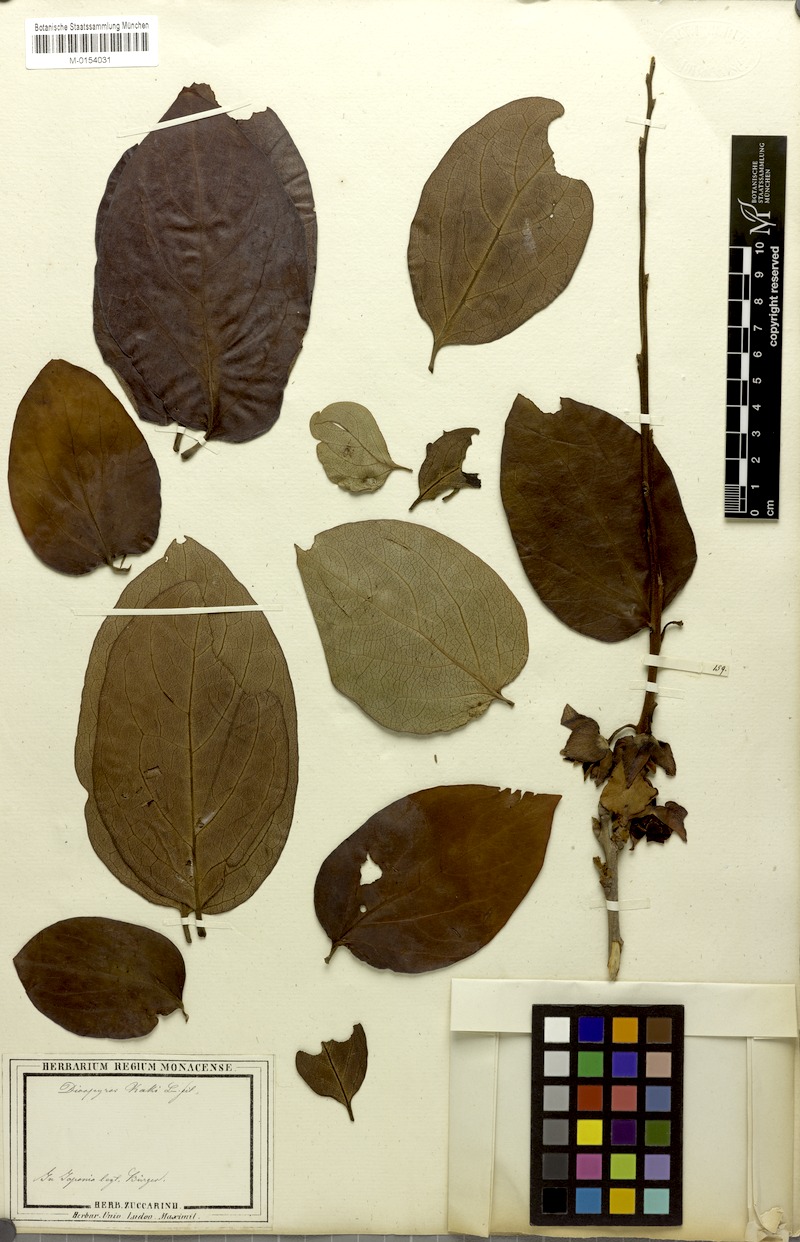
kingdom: Plantae
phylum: Tracheophyta
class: Magnoliopsida
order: Ericales
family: Ebenaceae
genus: Diospyros
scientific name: Diospyros kaki
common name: Persimmon
